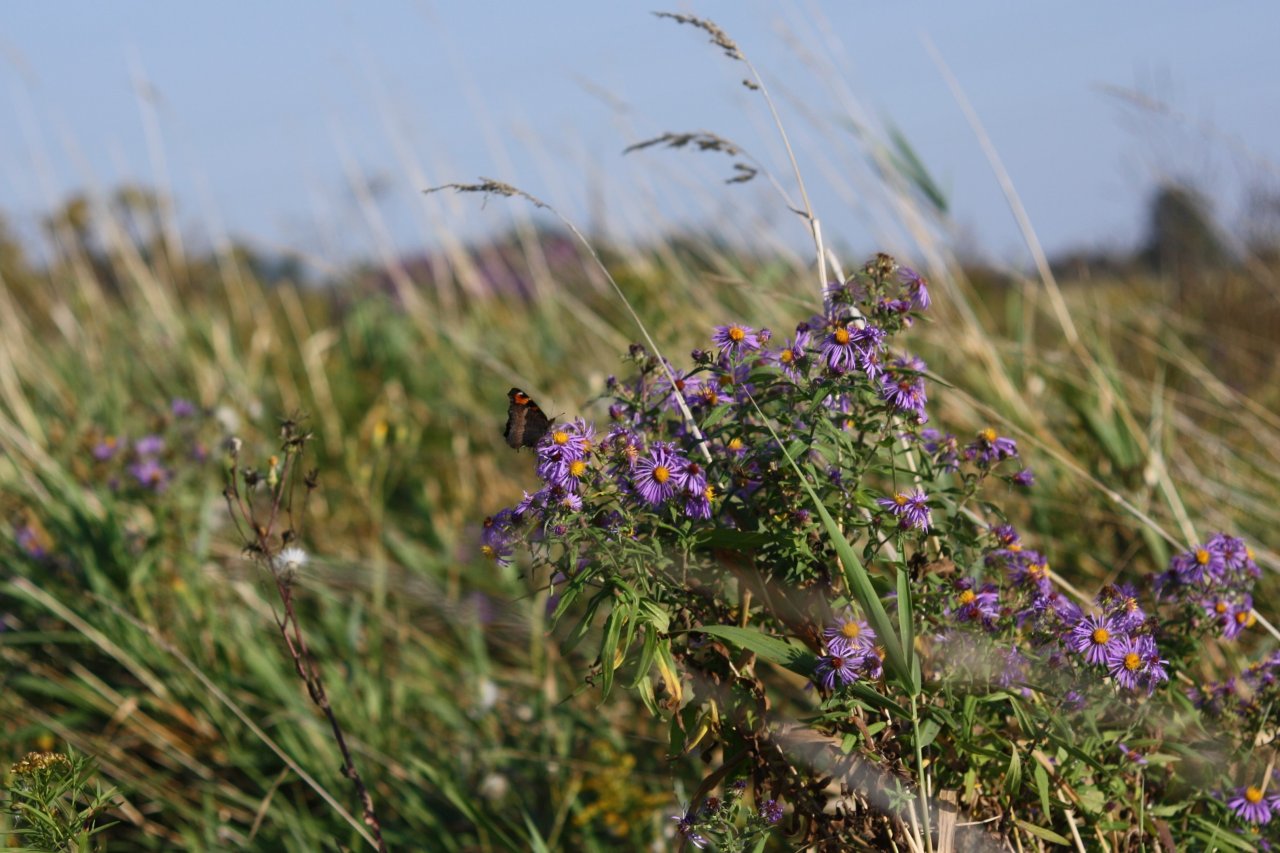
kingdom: Animalia
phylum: Arthropoda
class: Insecta
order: Lepidoptera
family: Nymphalidae
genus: Aglais
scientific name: Aglais milberti
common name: Milbert's Tortoiseshell
